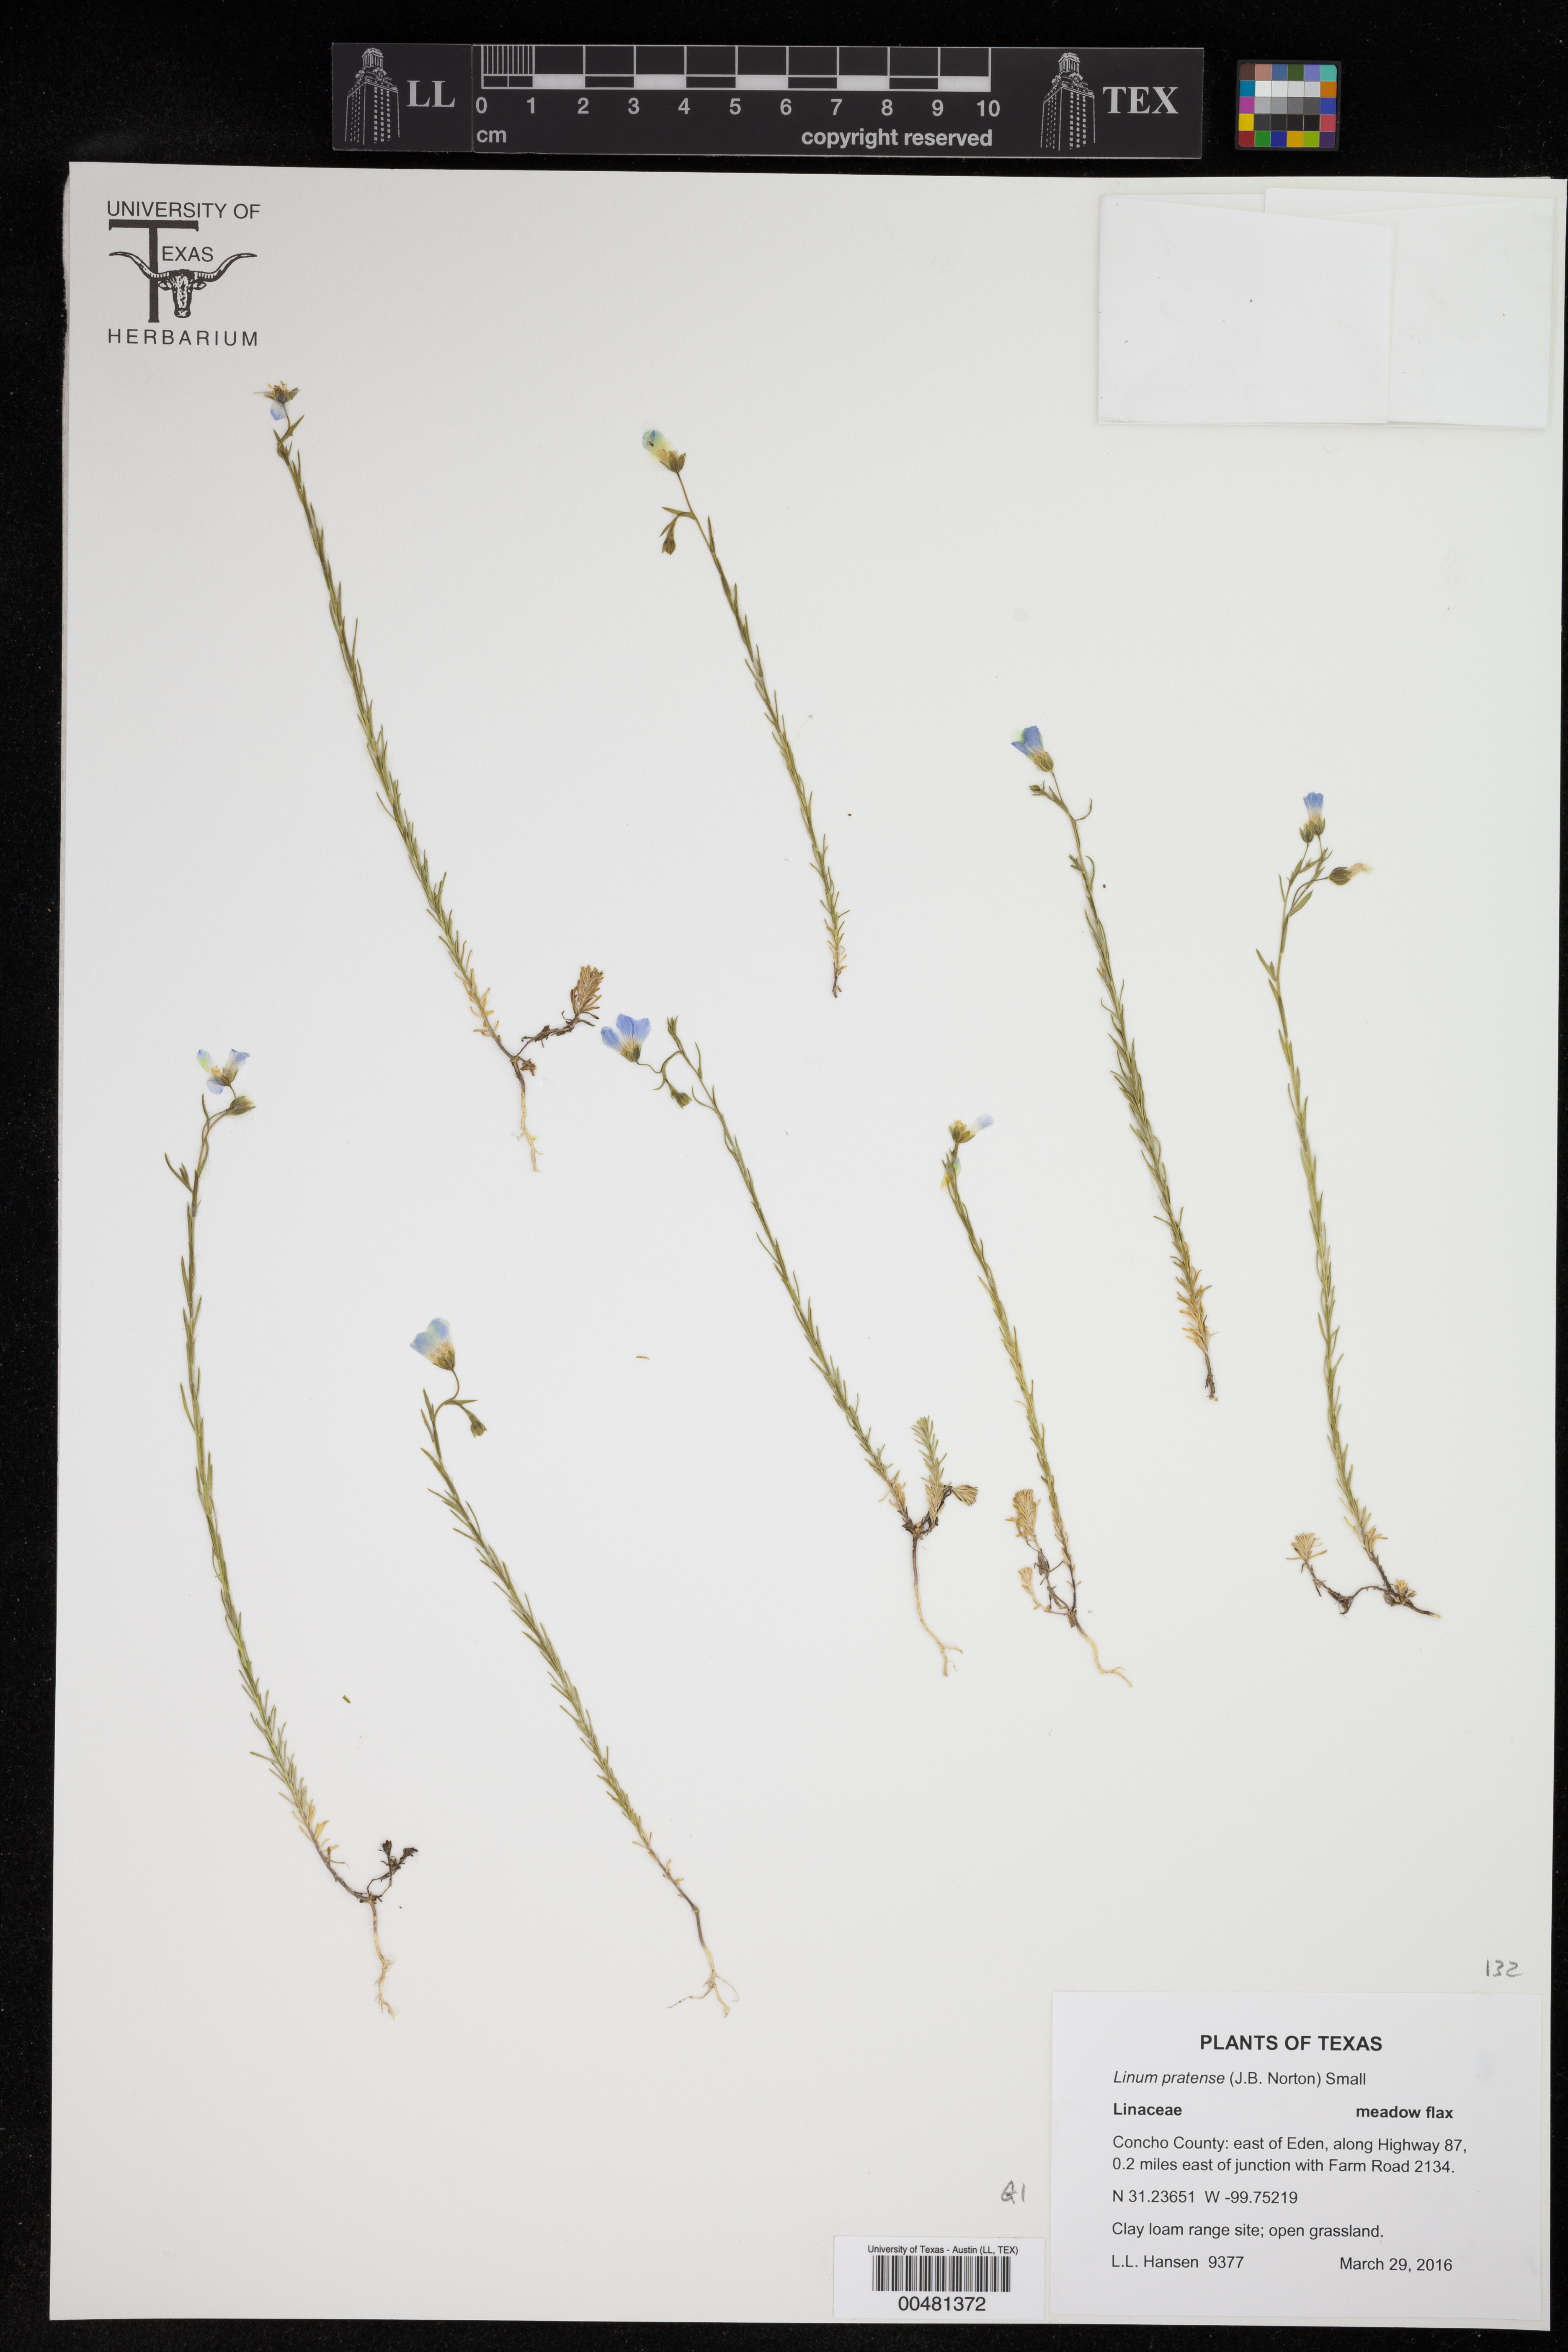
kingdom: Plantae
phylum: Tracheophyta
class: Magnoliopsida
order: Malpighiales
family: Linaceae
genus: Linum
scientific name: Linum pratense
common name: Norton's flax
